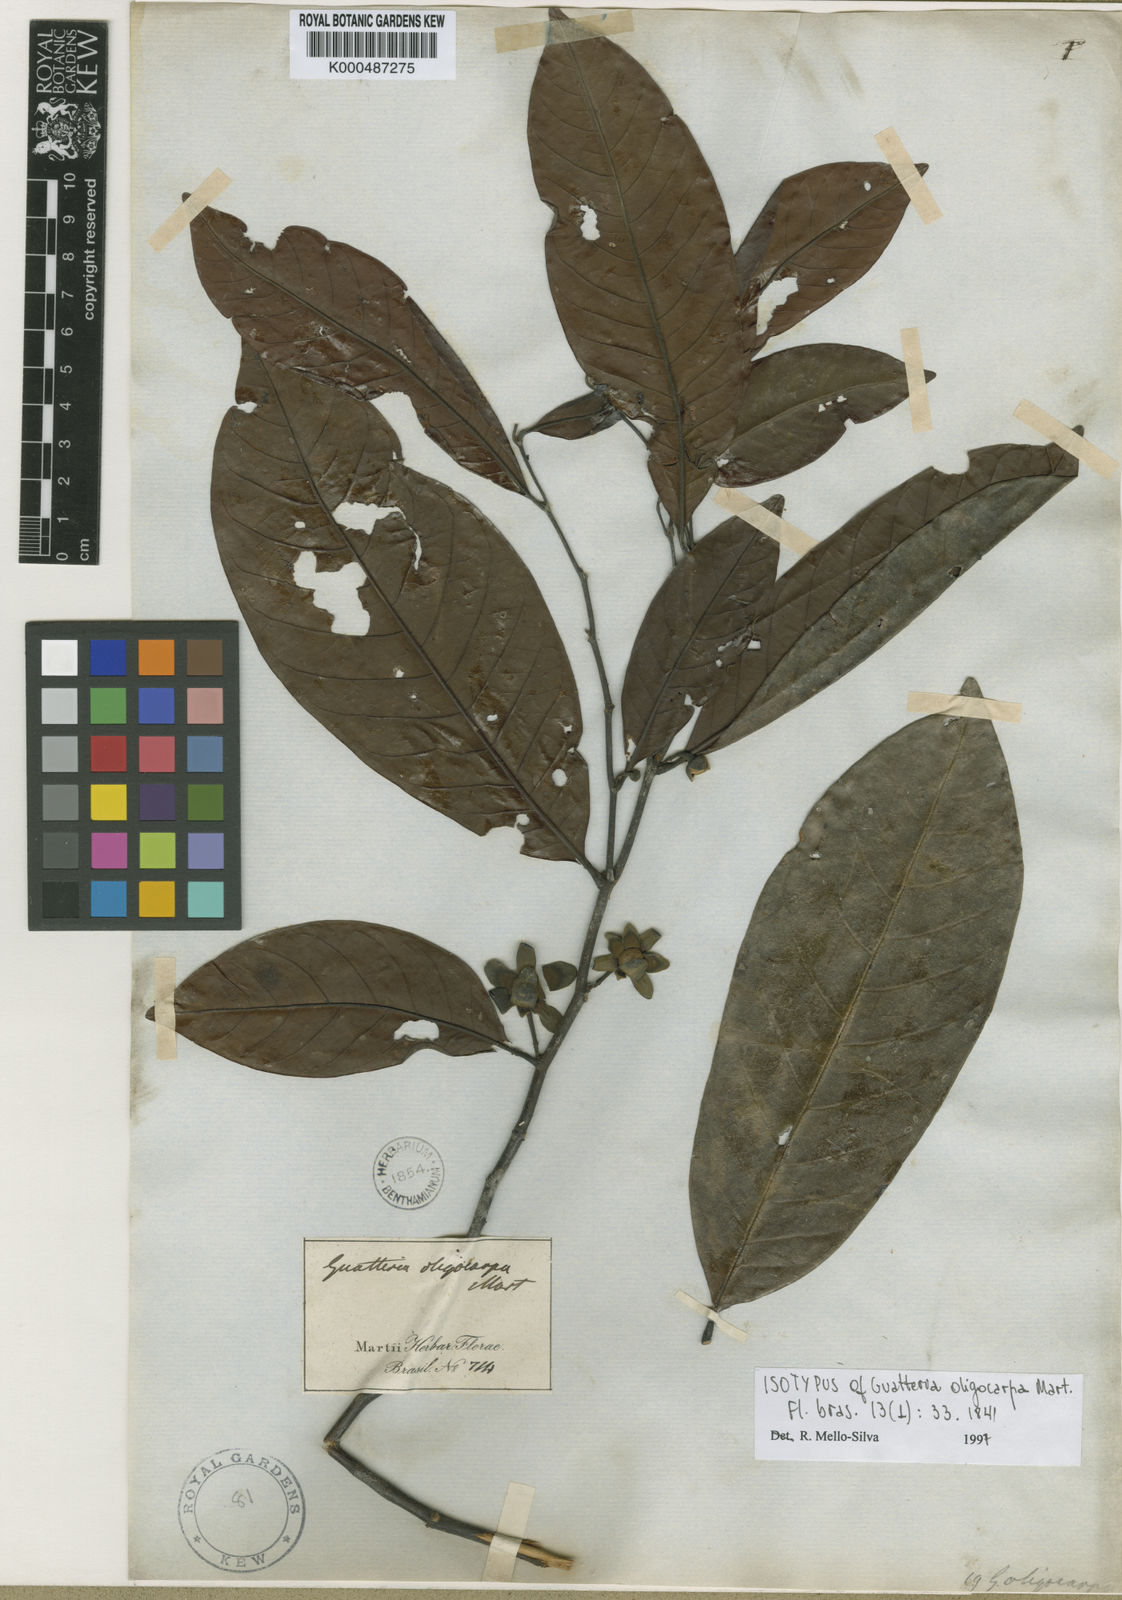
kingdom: Plantae
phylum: Tracheophyta
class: Magnoliopsida
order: Magnoliales
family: Annonaceae
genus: Guatteria
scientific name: Guatteria oligocarpa
